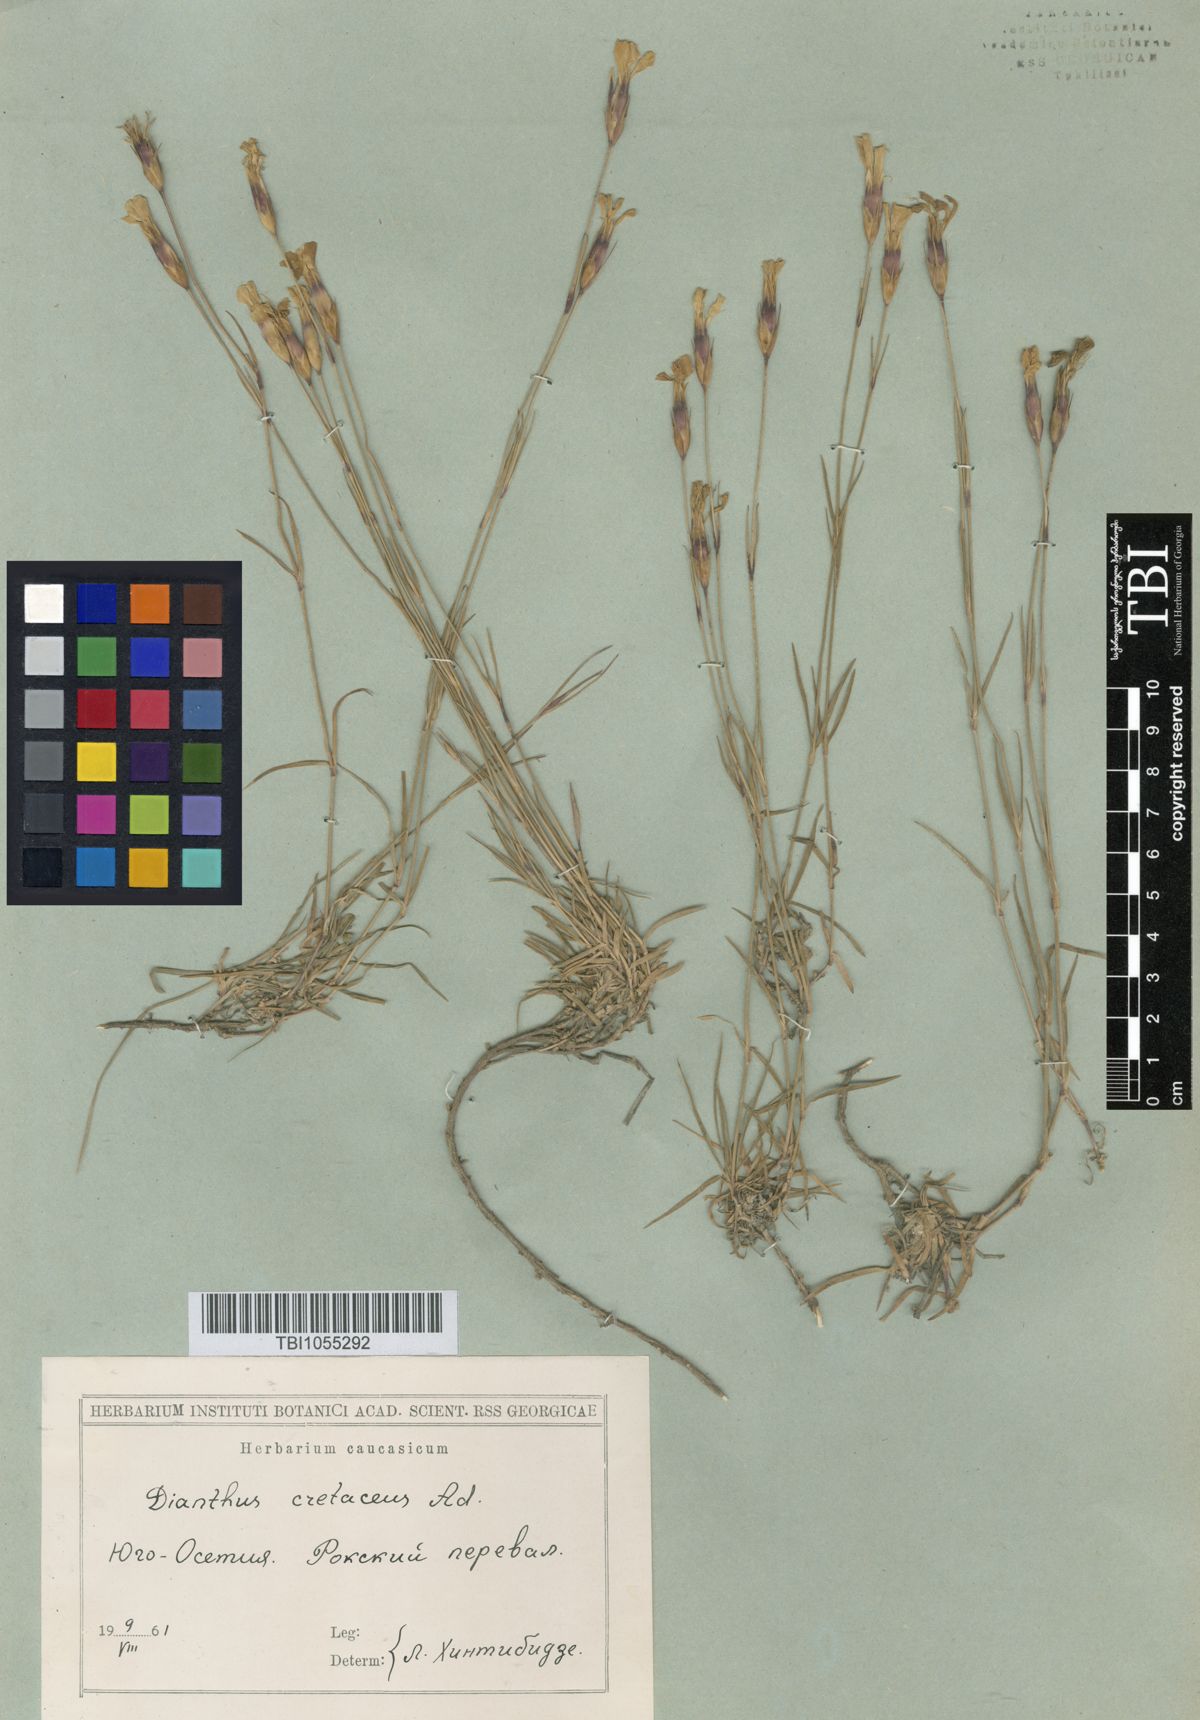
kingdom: Plantae
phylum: Tracheophyta
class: Magnoliopsida
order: Caryophyllales
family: Caryophyllaceae
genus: Dianthus
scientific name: Dianthus cretaceus
